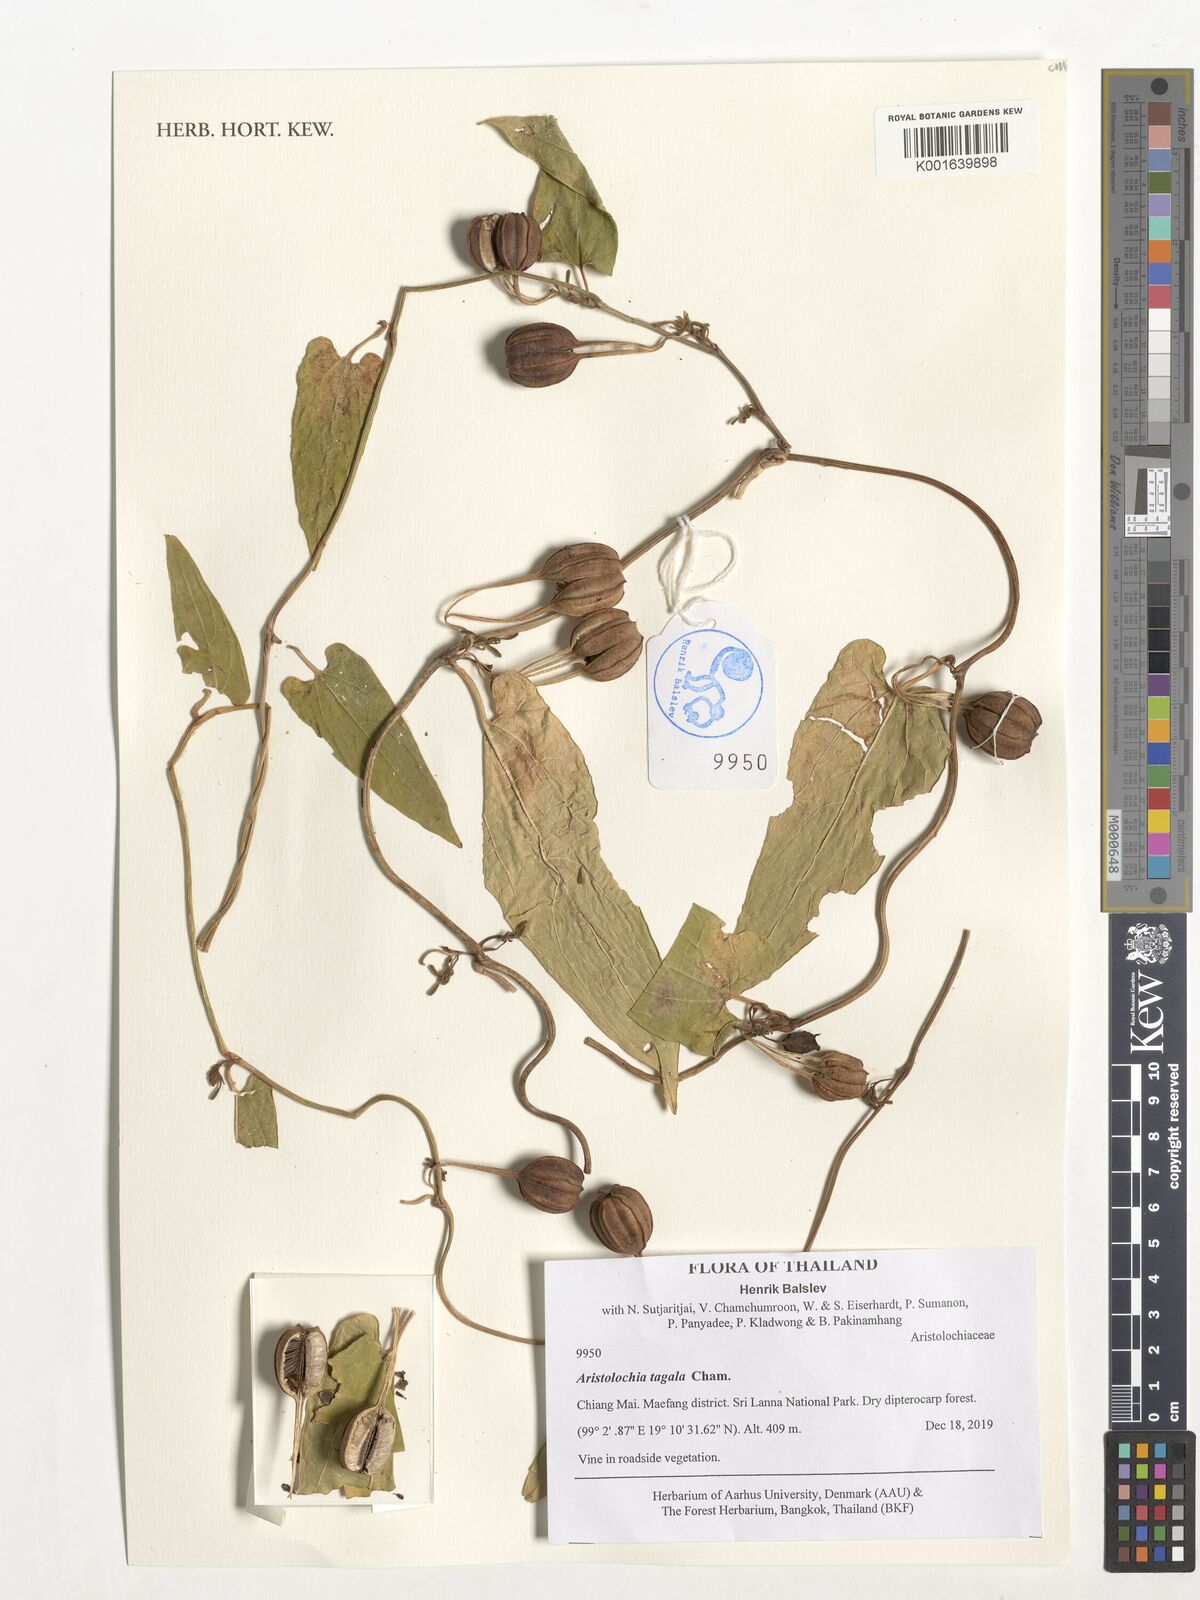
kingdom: Plantae
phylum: Tracheophyta
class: Magnoliopsida
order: Piperales
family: Aristolochiaceae
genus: Aristolochia
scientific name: Aristolochia acuminata
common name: Indian birthwort
